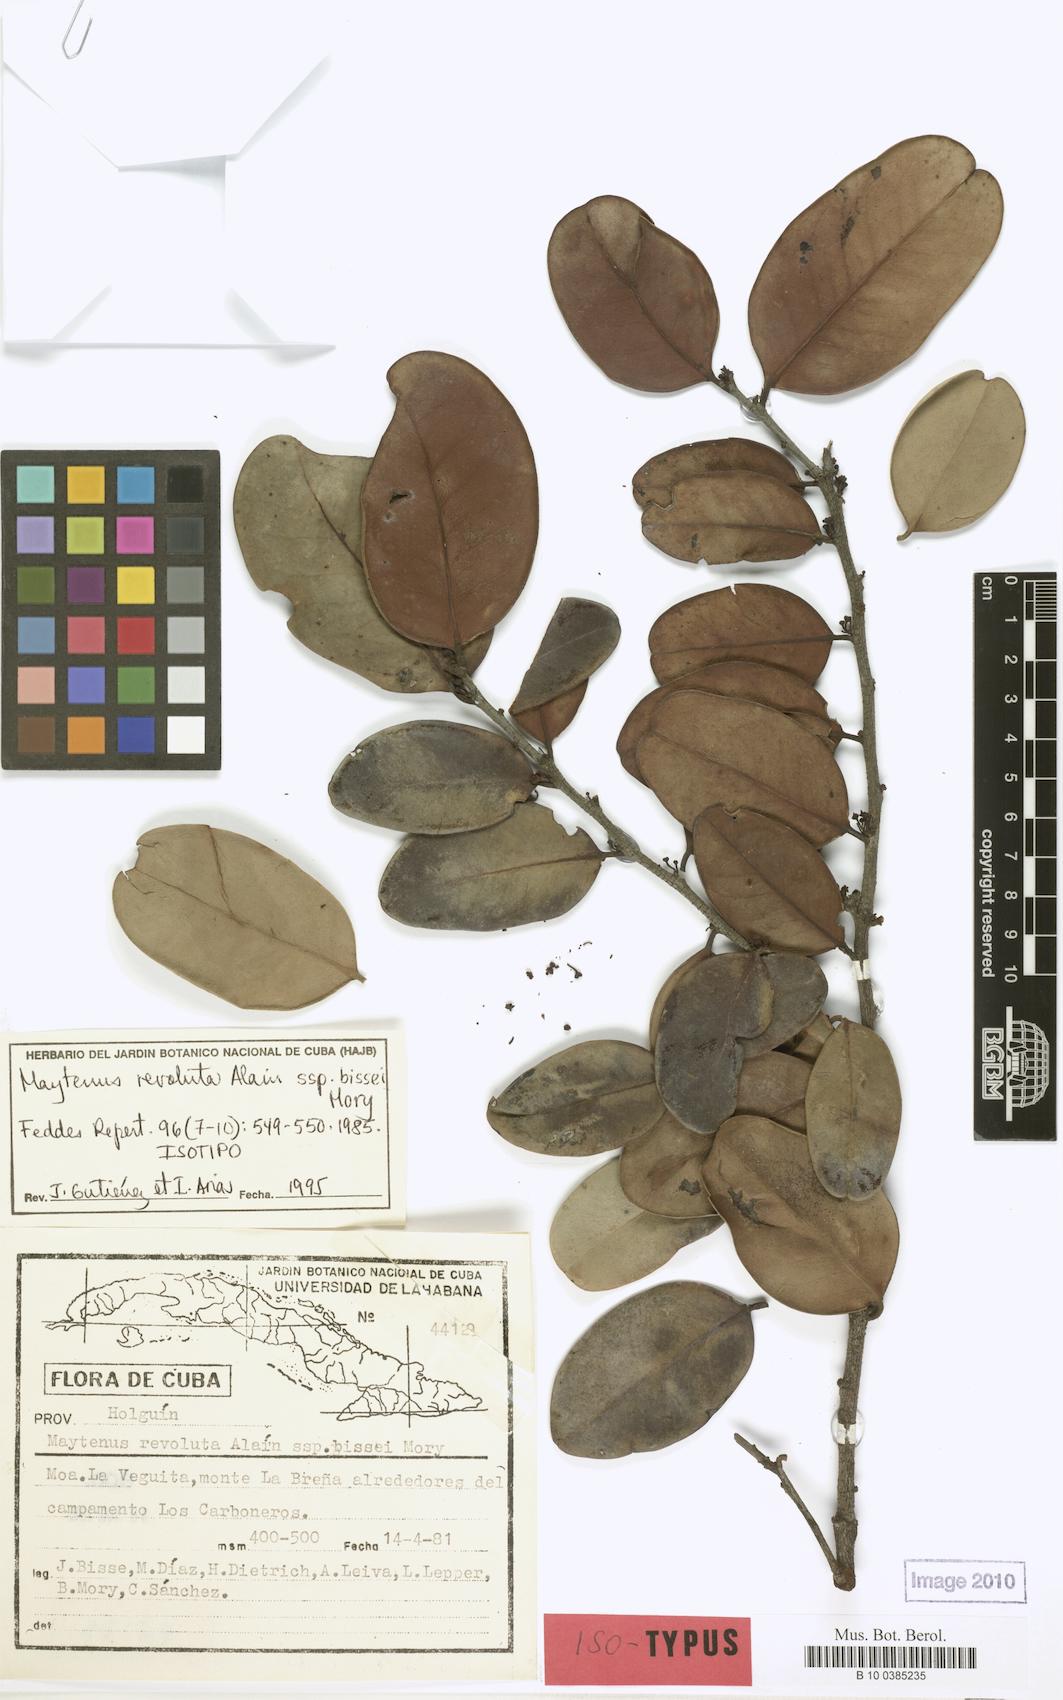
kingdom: Plantae
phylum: Tracheophyta
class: Magnoliopsida
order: Celastrales
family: Celastraceae
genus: Monteverdia
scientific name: Monteverdia revoluta
